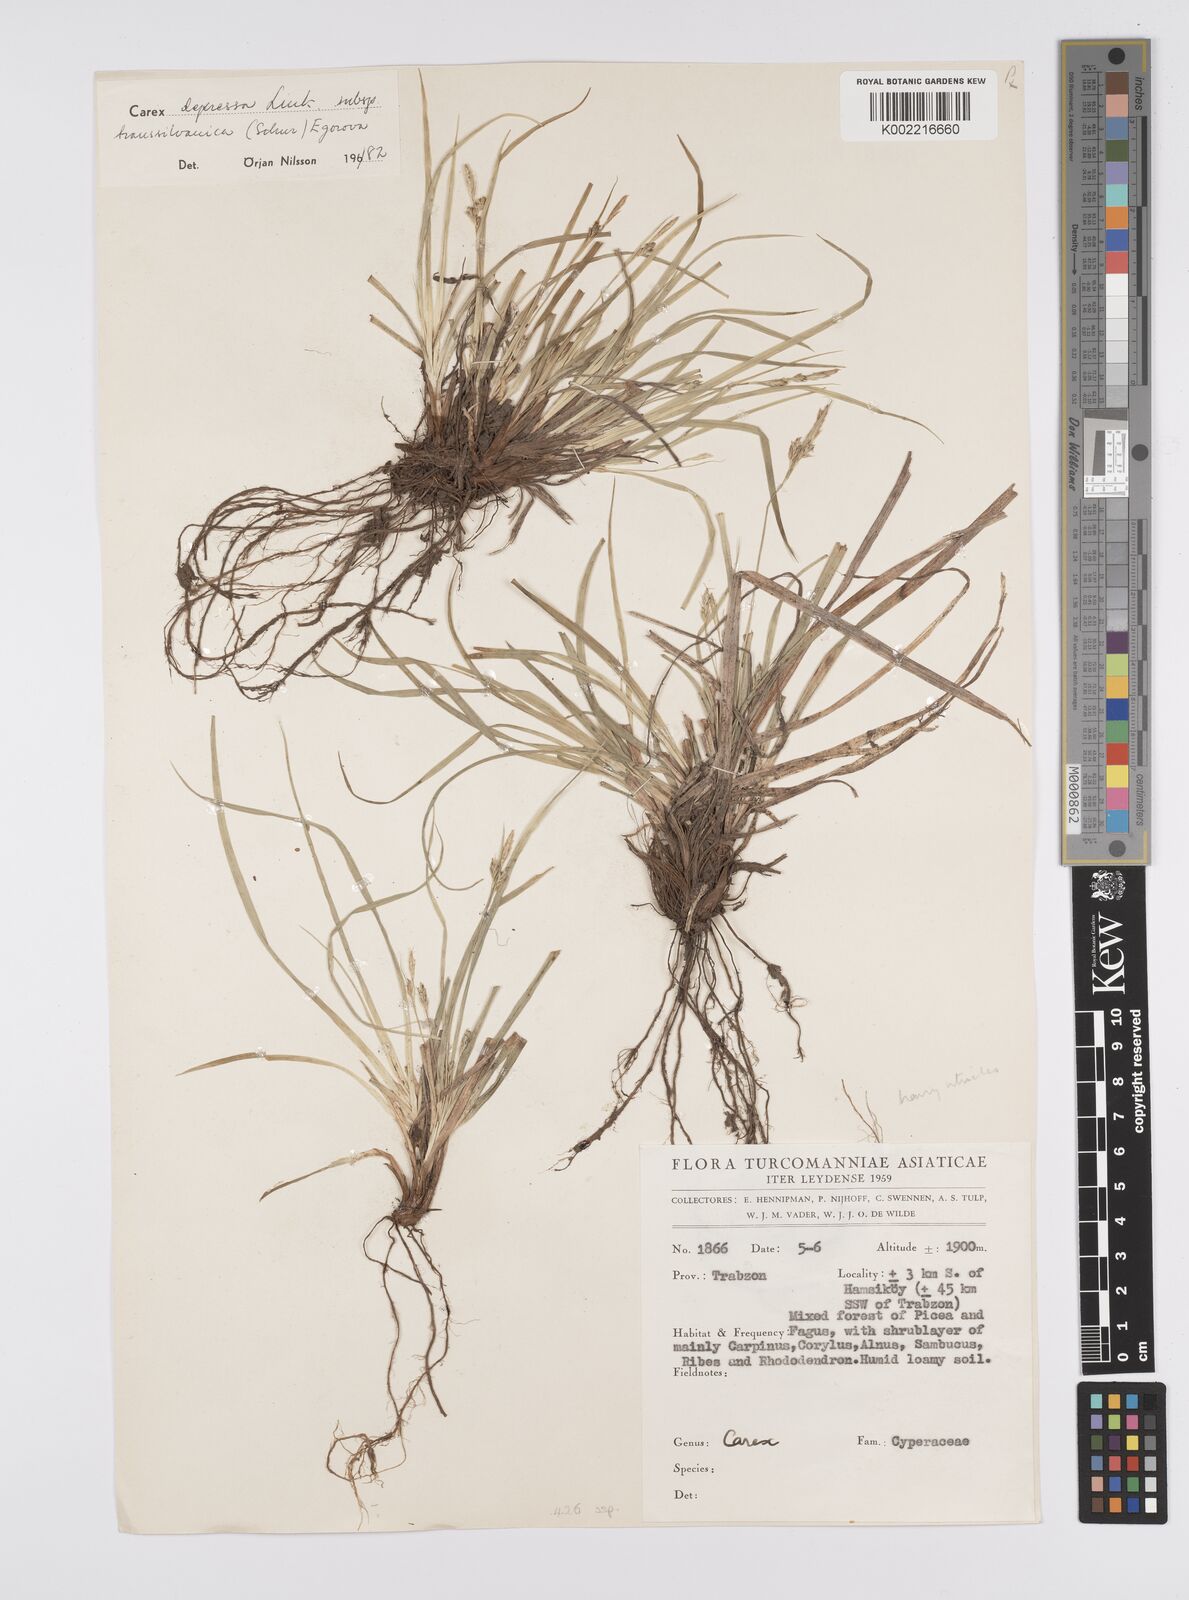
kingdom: Plantae
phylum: Tracheophyta
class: Liliopsida
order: Poales
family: Cyperaceae
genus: Carex
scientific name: Carex depressa
